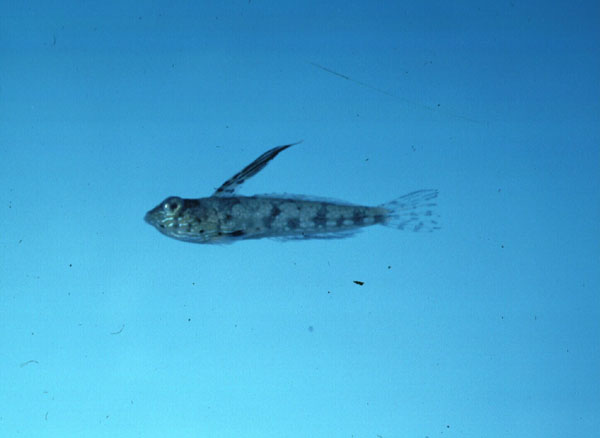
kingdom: Animalia
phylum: Chordata
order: Perciformes
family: Callionymidae
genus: Callionymus
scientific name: Callionymus
